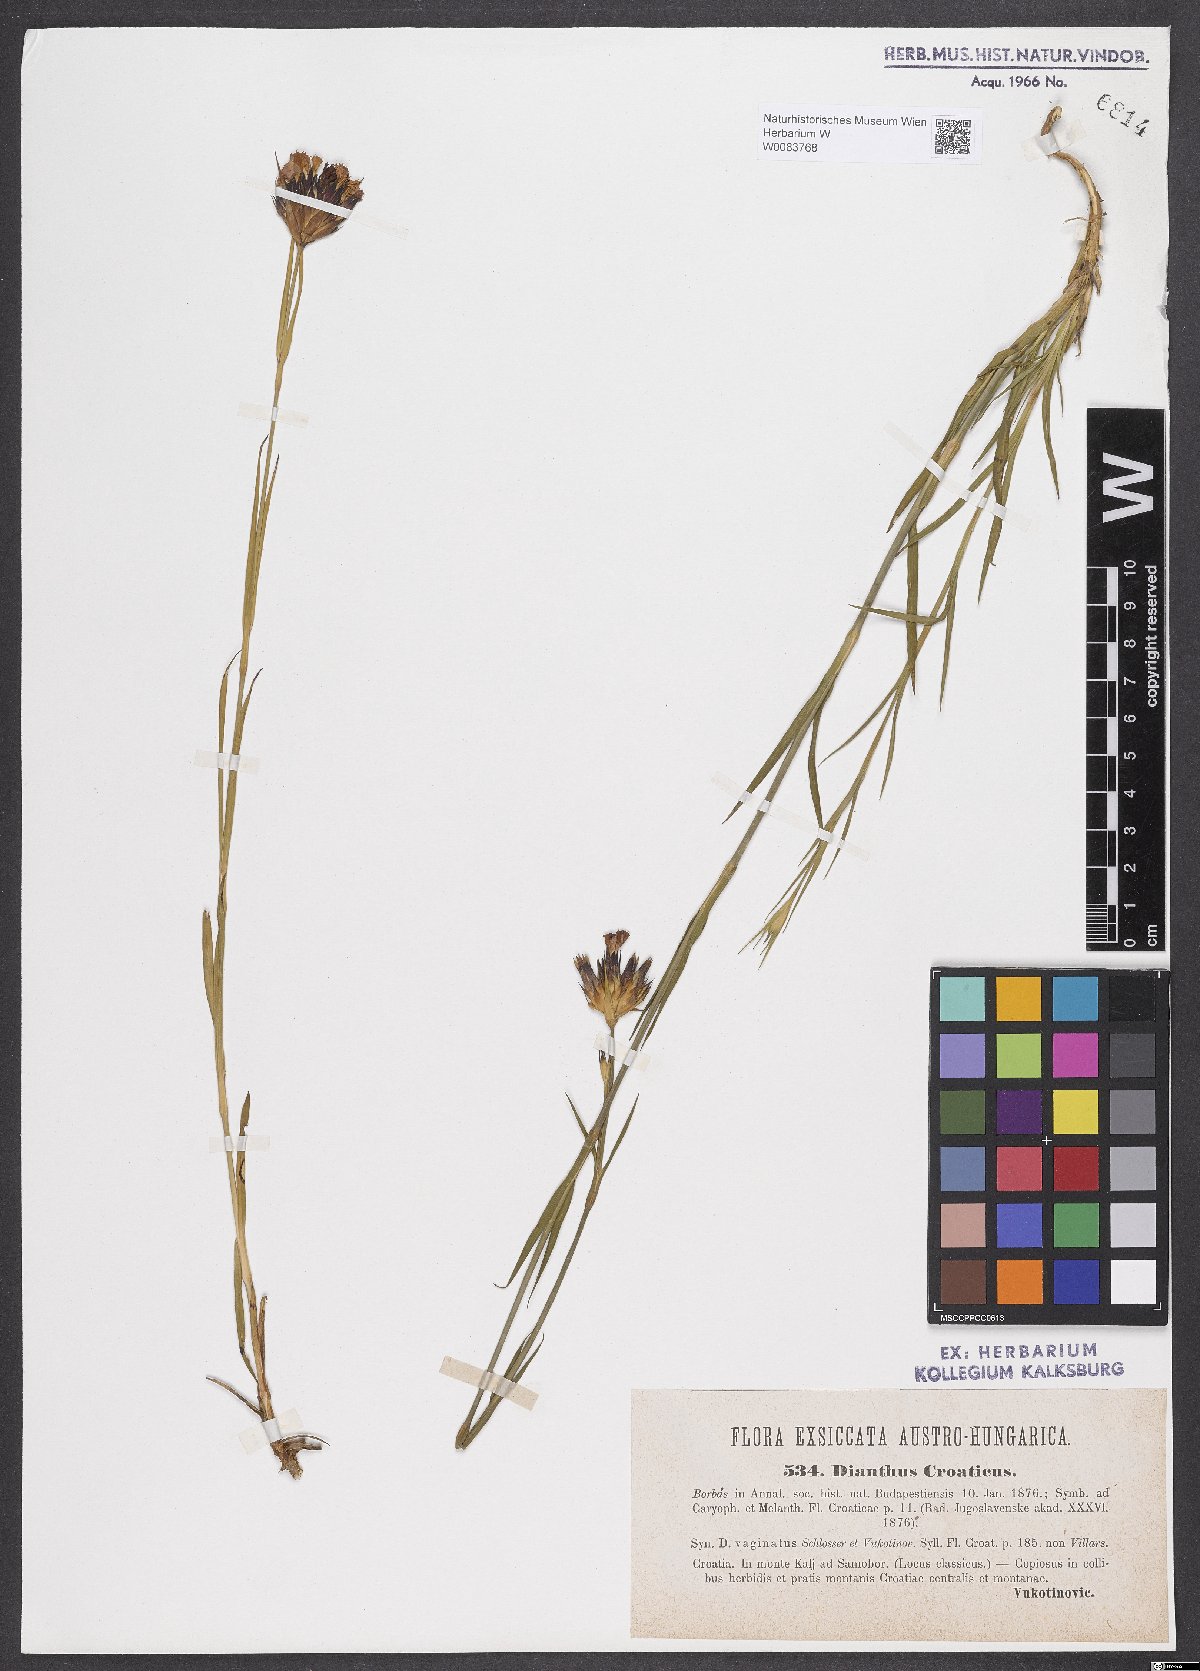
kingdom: Plantae
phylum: Tracheophyta
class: Magnoliopsida
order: Caryophyllales
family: Caryophyllaceae
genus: Dianthus
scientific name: Dianthus giganteus
